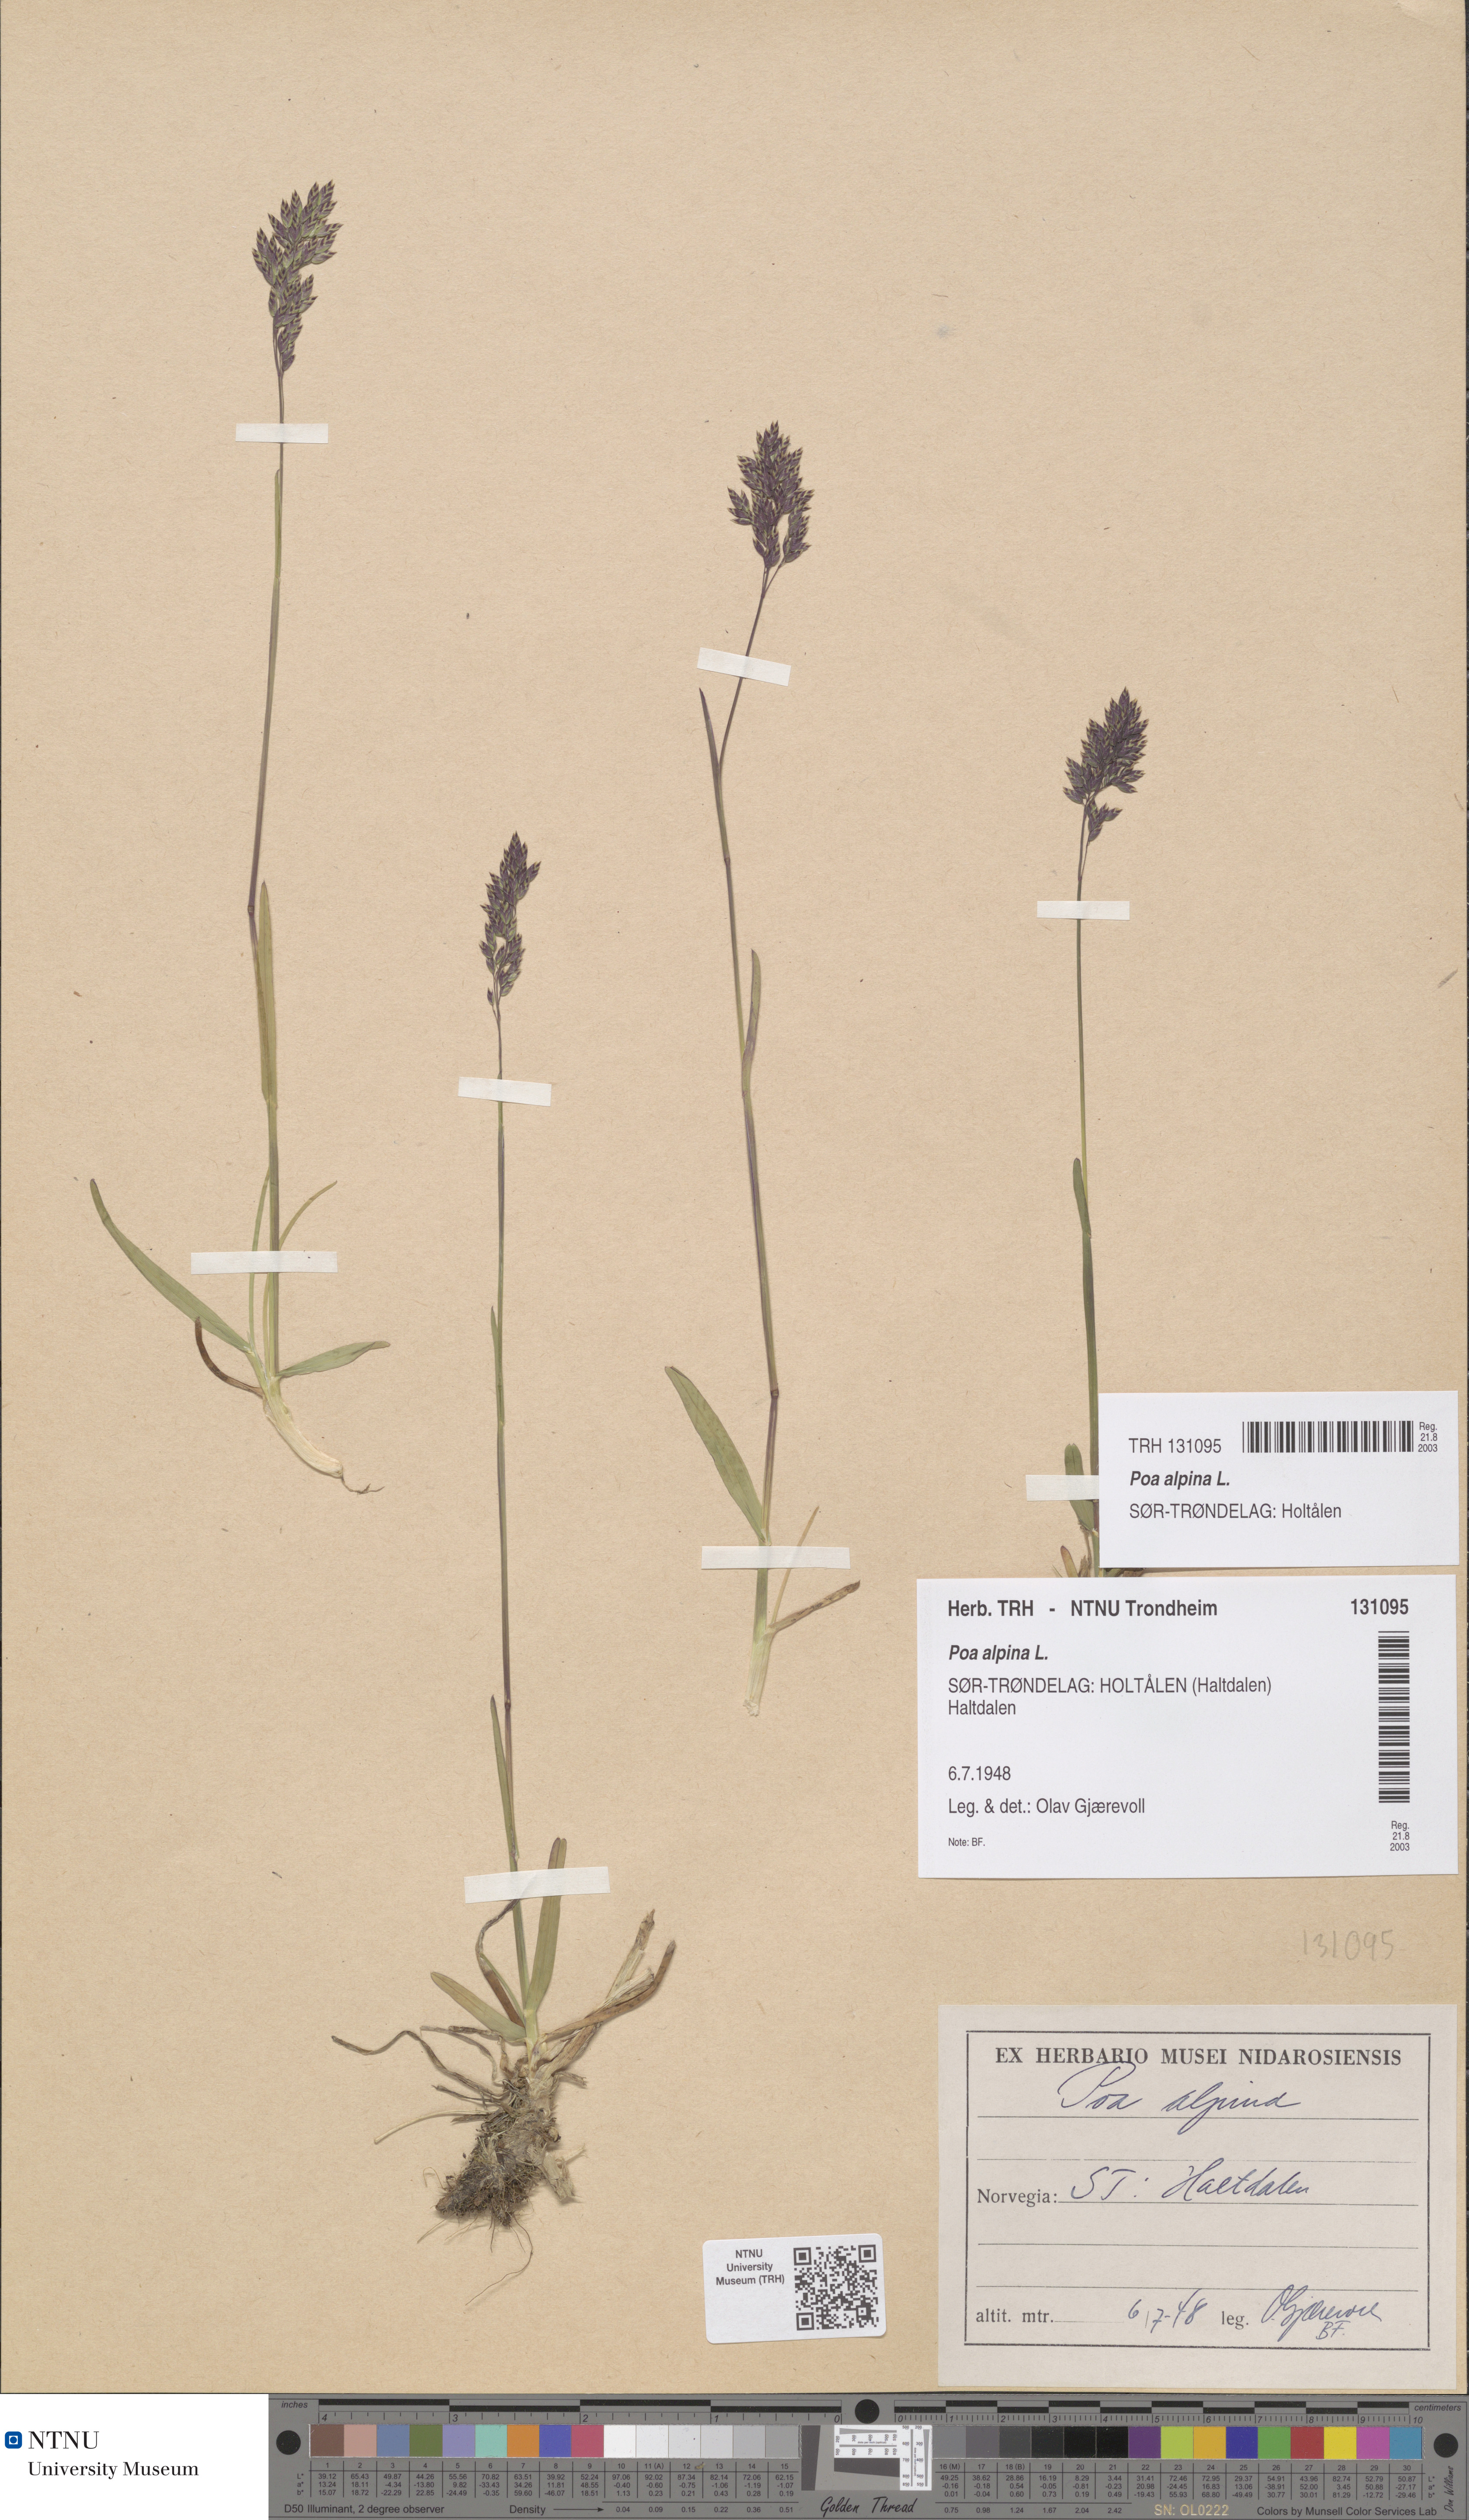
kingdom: Plantae
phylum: Tracheophyta
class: Liliopsida
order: Poales
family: Poaceae
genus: Poa
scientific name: Poa alpina
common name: Alpine bluegrass
